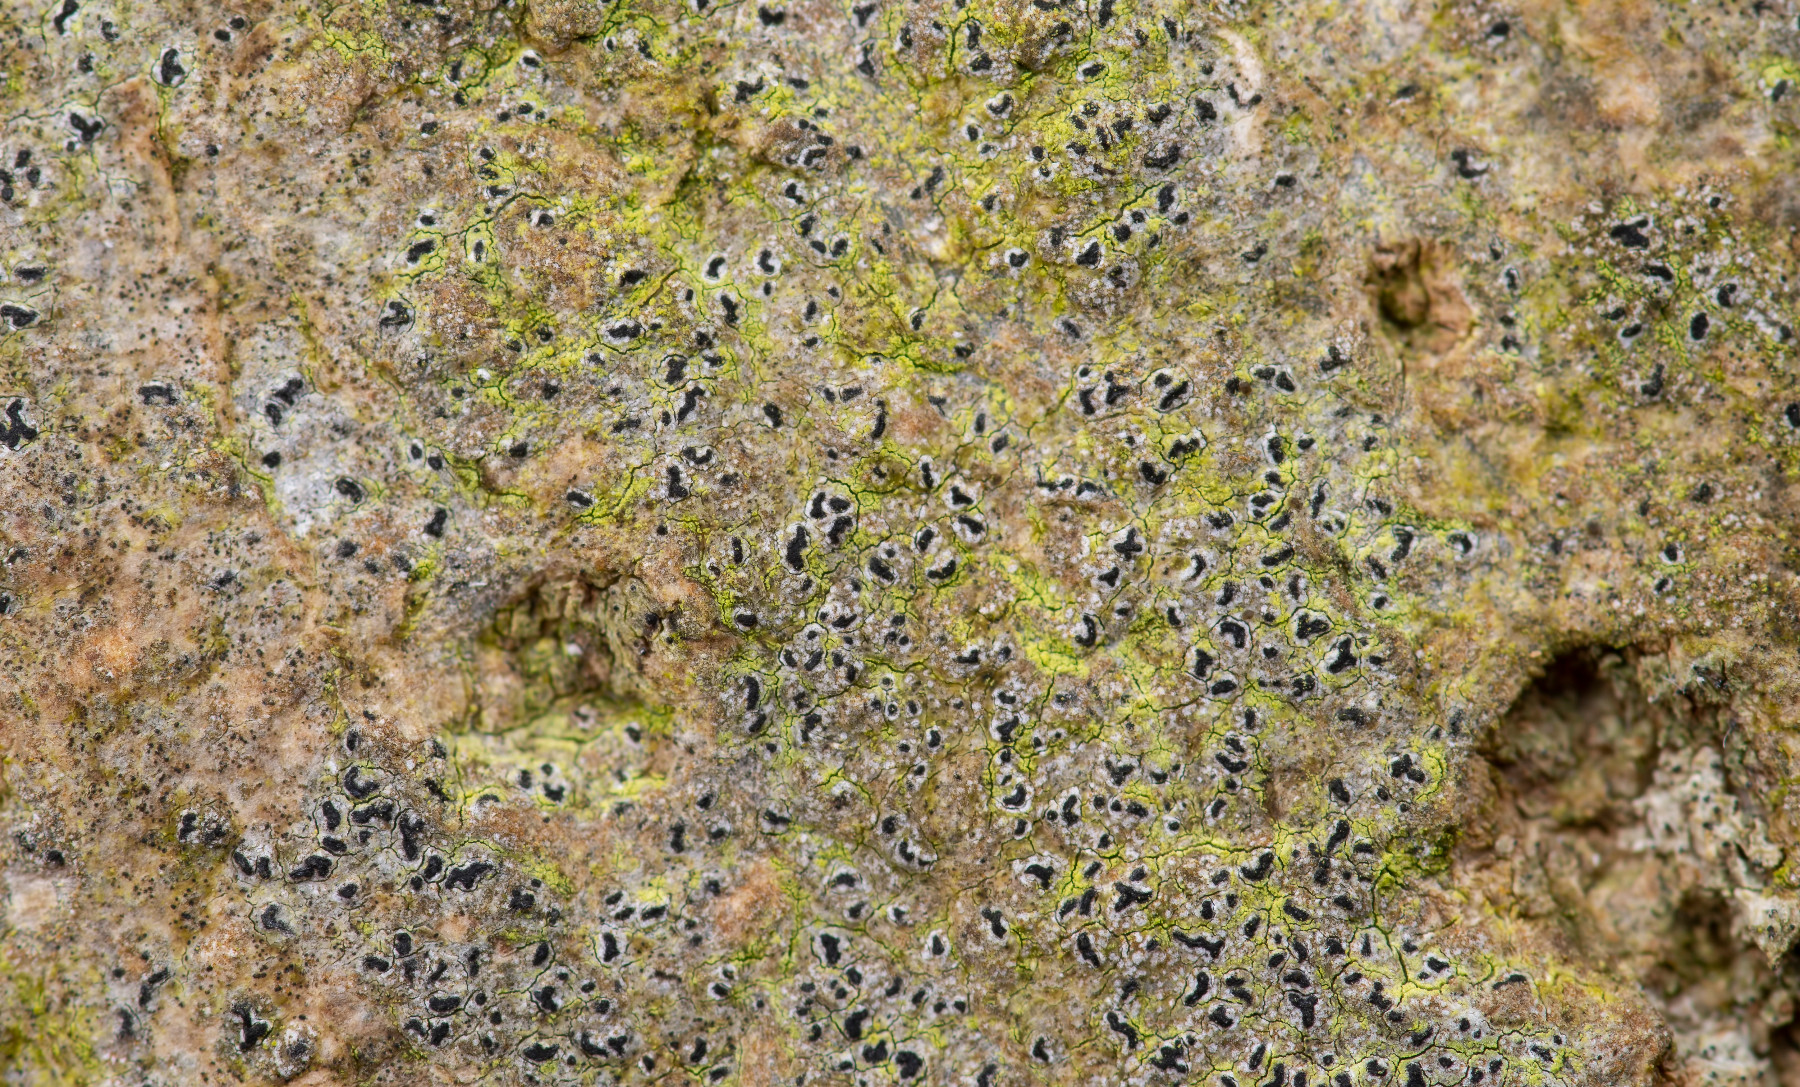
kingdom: Fungi
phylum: Ascomycota
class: Arthoniomycetes
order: Arthoniales
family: Roccellaceae
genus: Pseudoschismatomma
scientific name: Pseudoschismatomma rufescens
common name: brun bogstavlav
